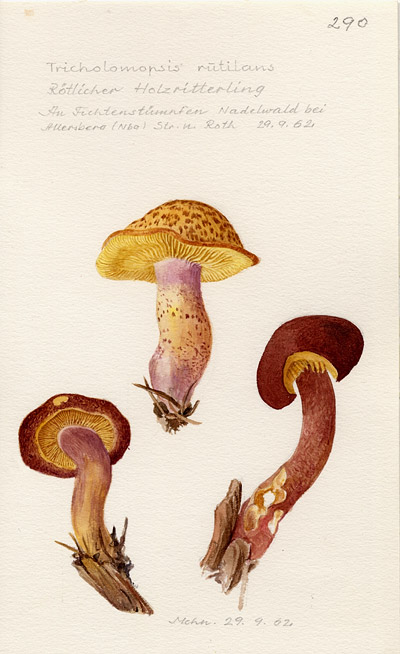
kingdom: Fungi
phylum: Basidiomycota
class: Agaricomycetes
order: Agaricales
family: Tricholomataceae
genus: Tricholomopsis
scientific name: Tricholomopsis rutilans
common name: Plums and custard
